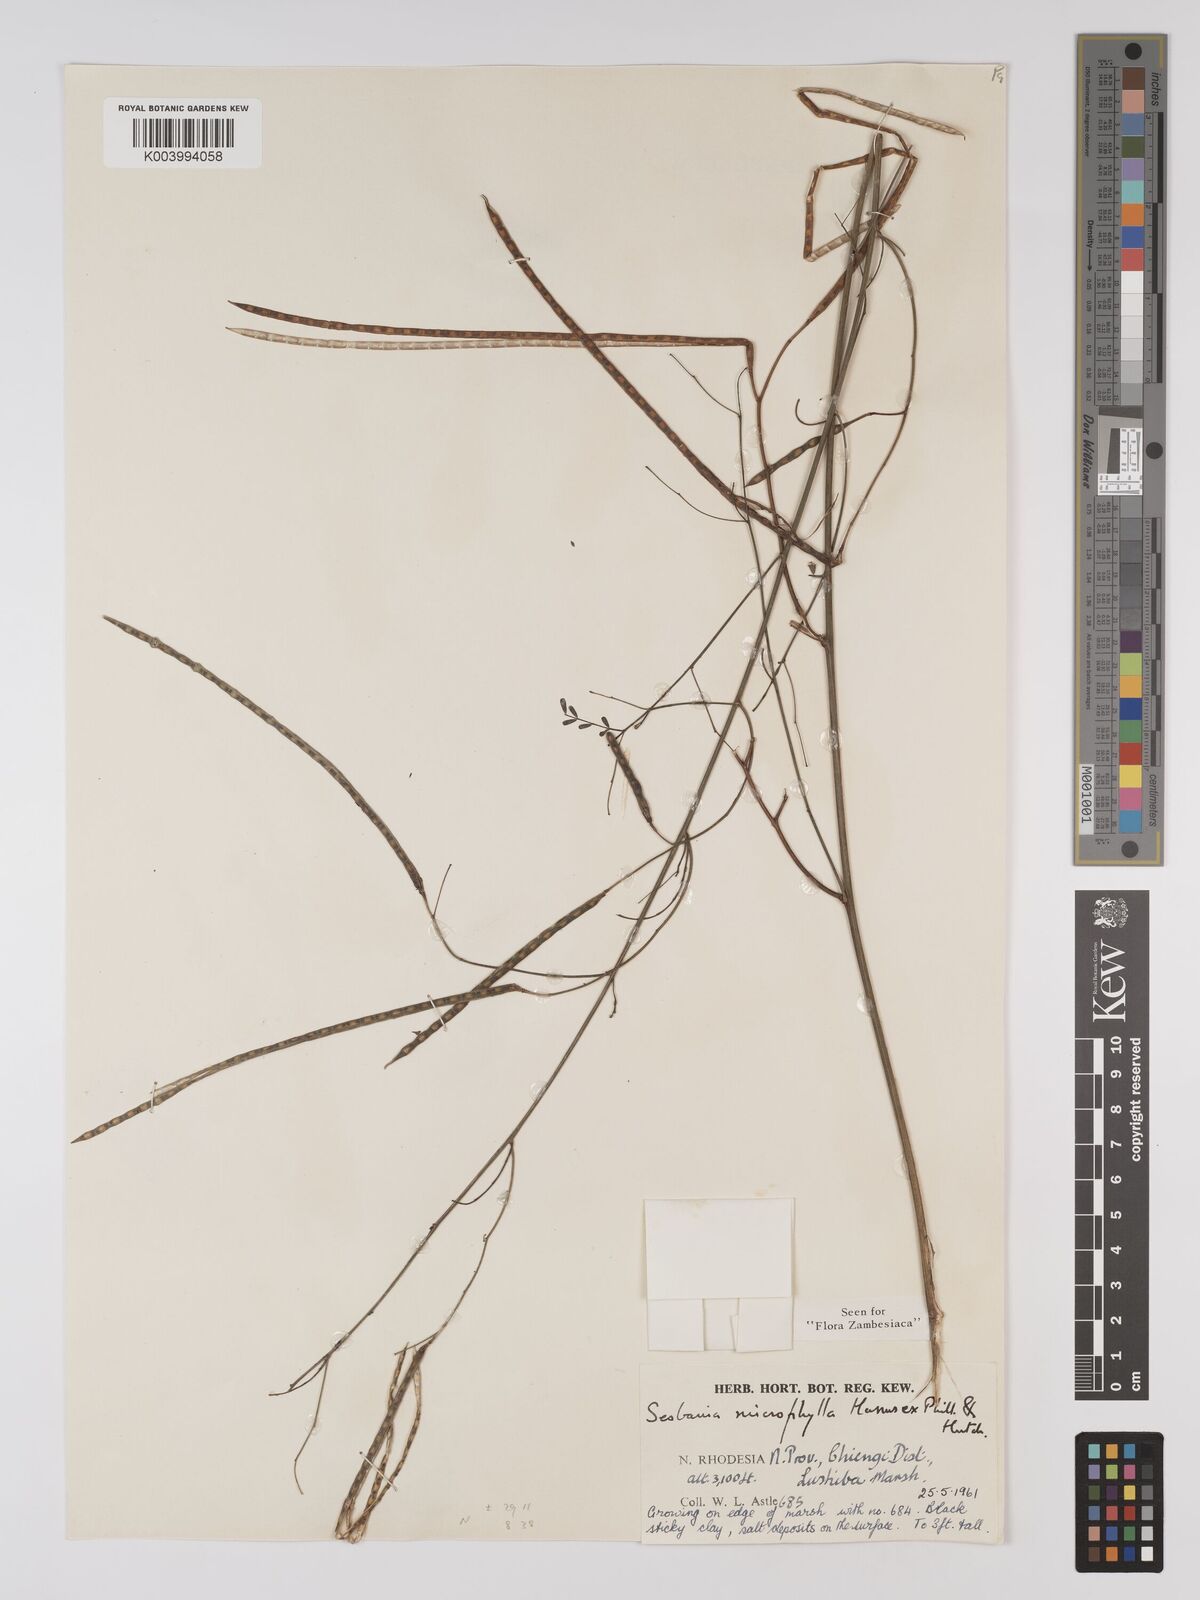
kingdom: Plantae
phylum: Tracheophyta
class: Magnoliopsida
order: Fabales
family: Fabaceae
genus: Sesbania
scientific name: Sesbania microphylla
